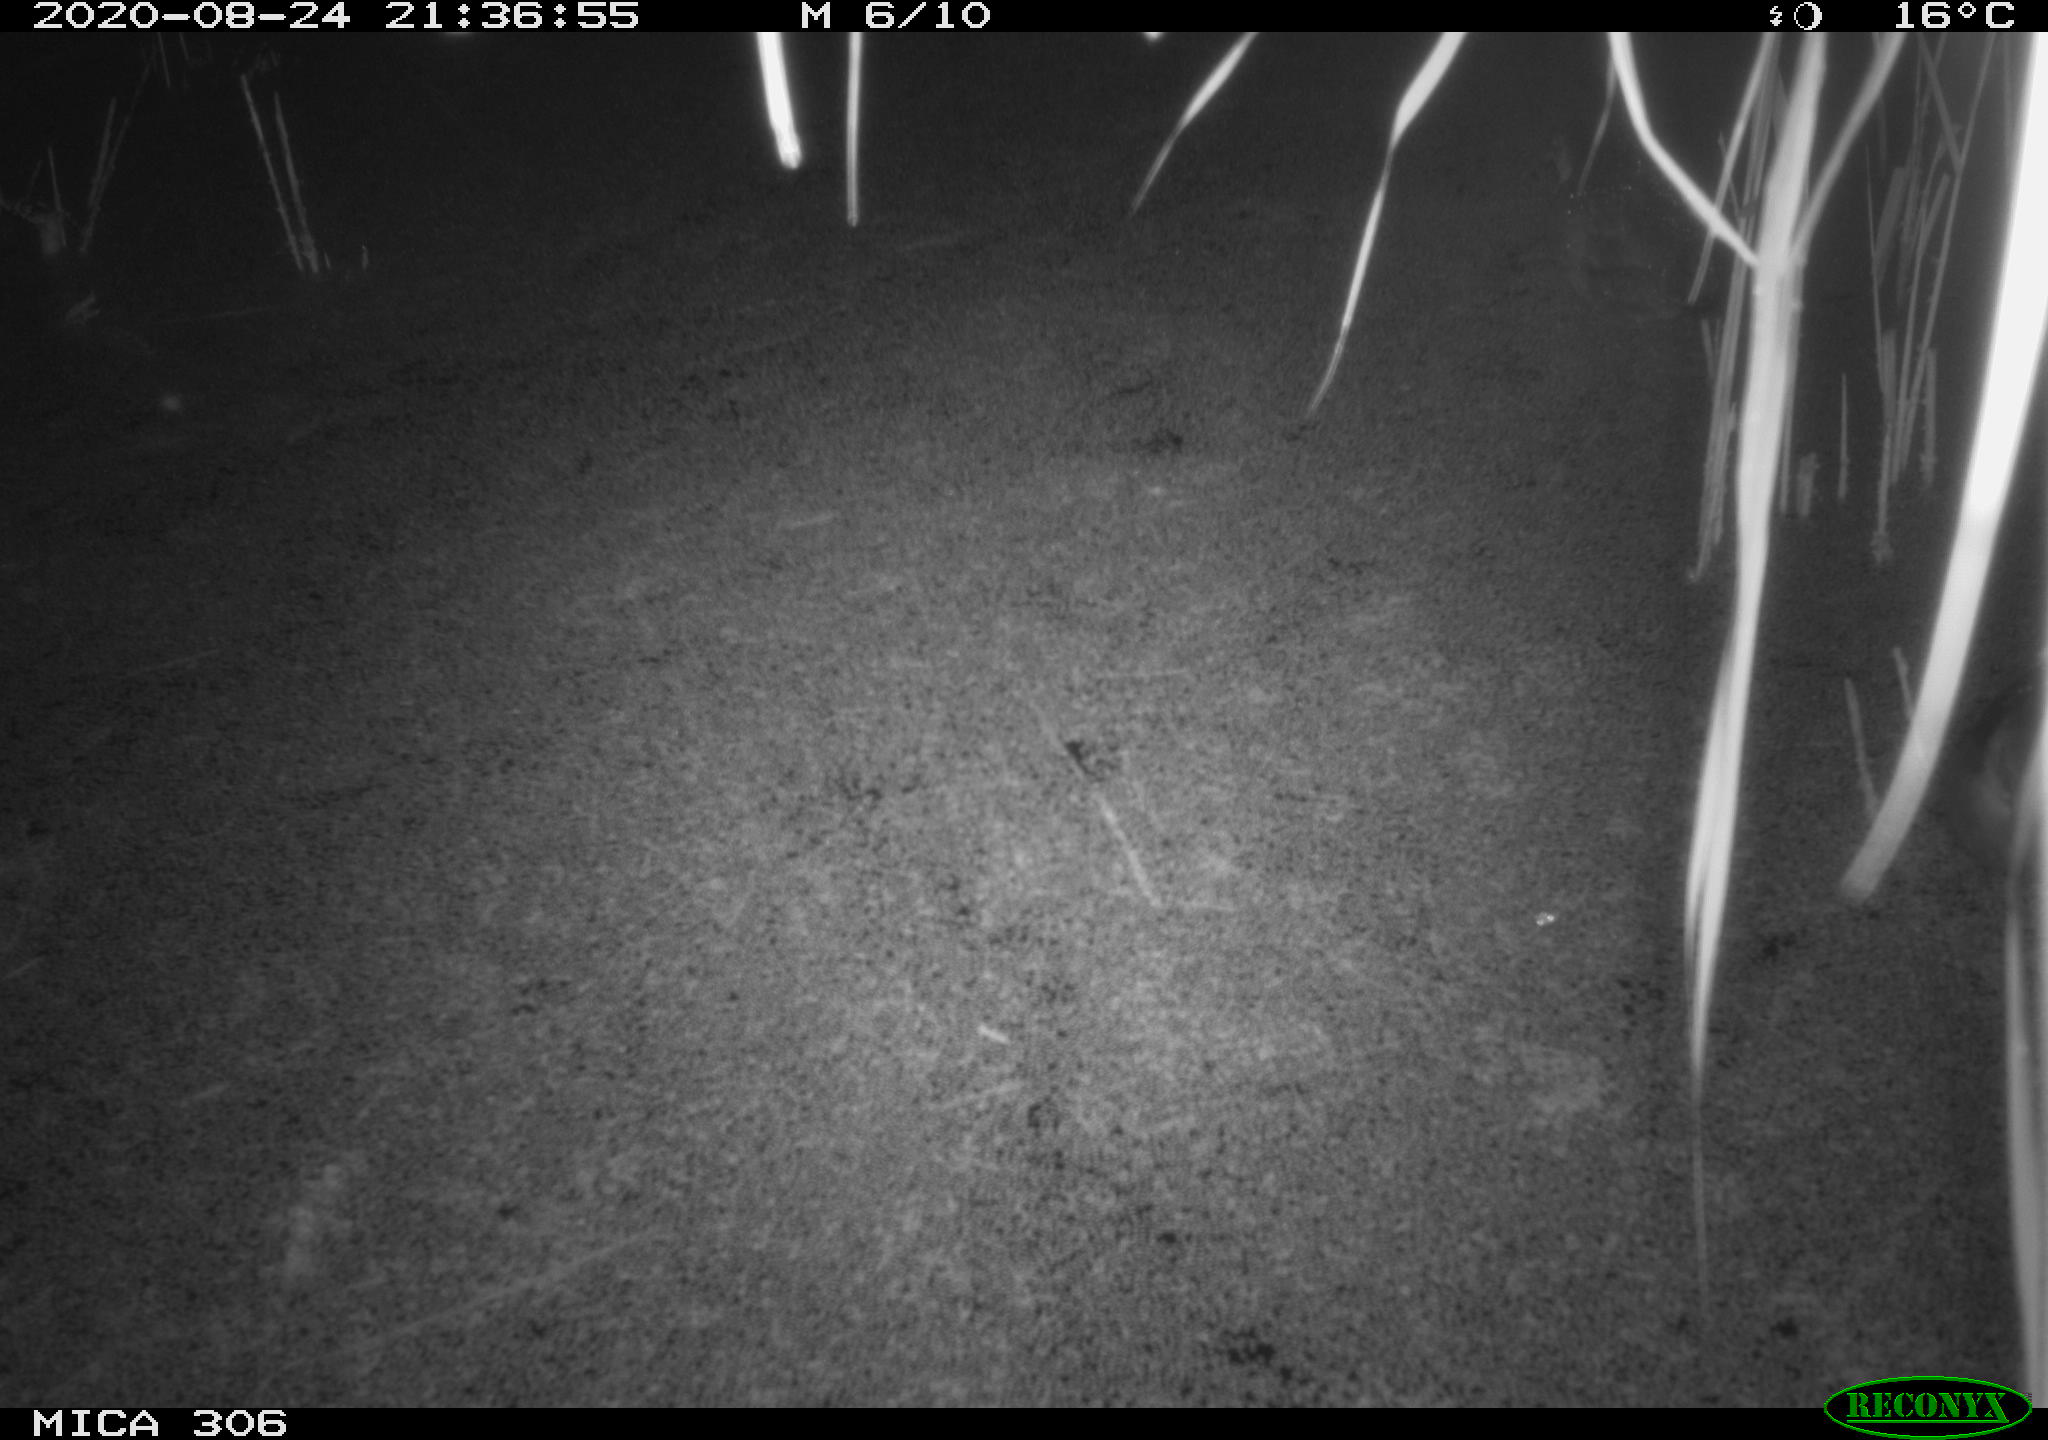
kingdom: Animalia
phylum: Chordata
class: Aves
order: Gruiformes
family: Rallidae
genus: Fulica
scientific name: Fulica atra
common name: Eurasian coot
